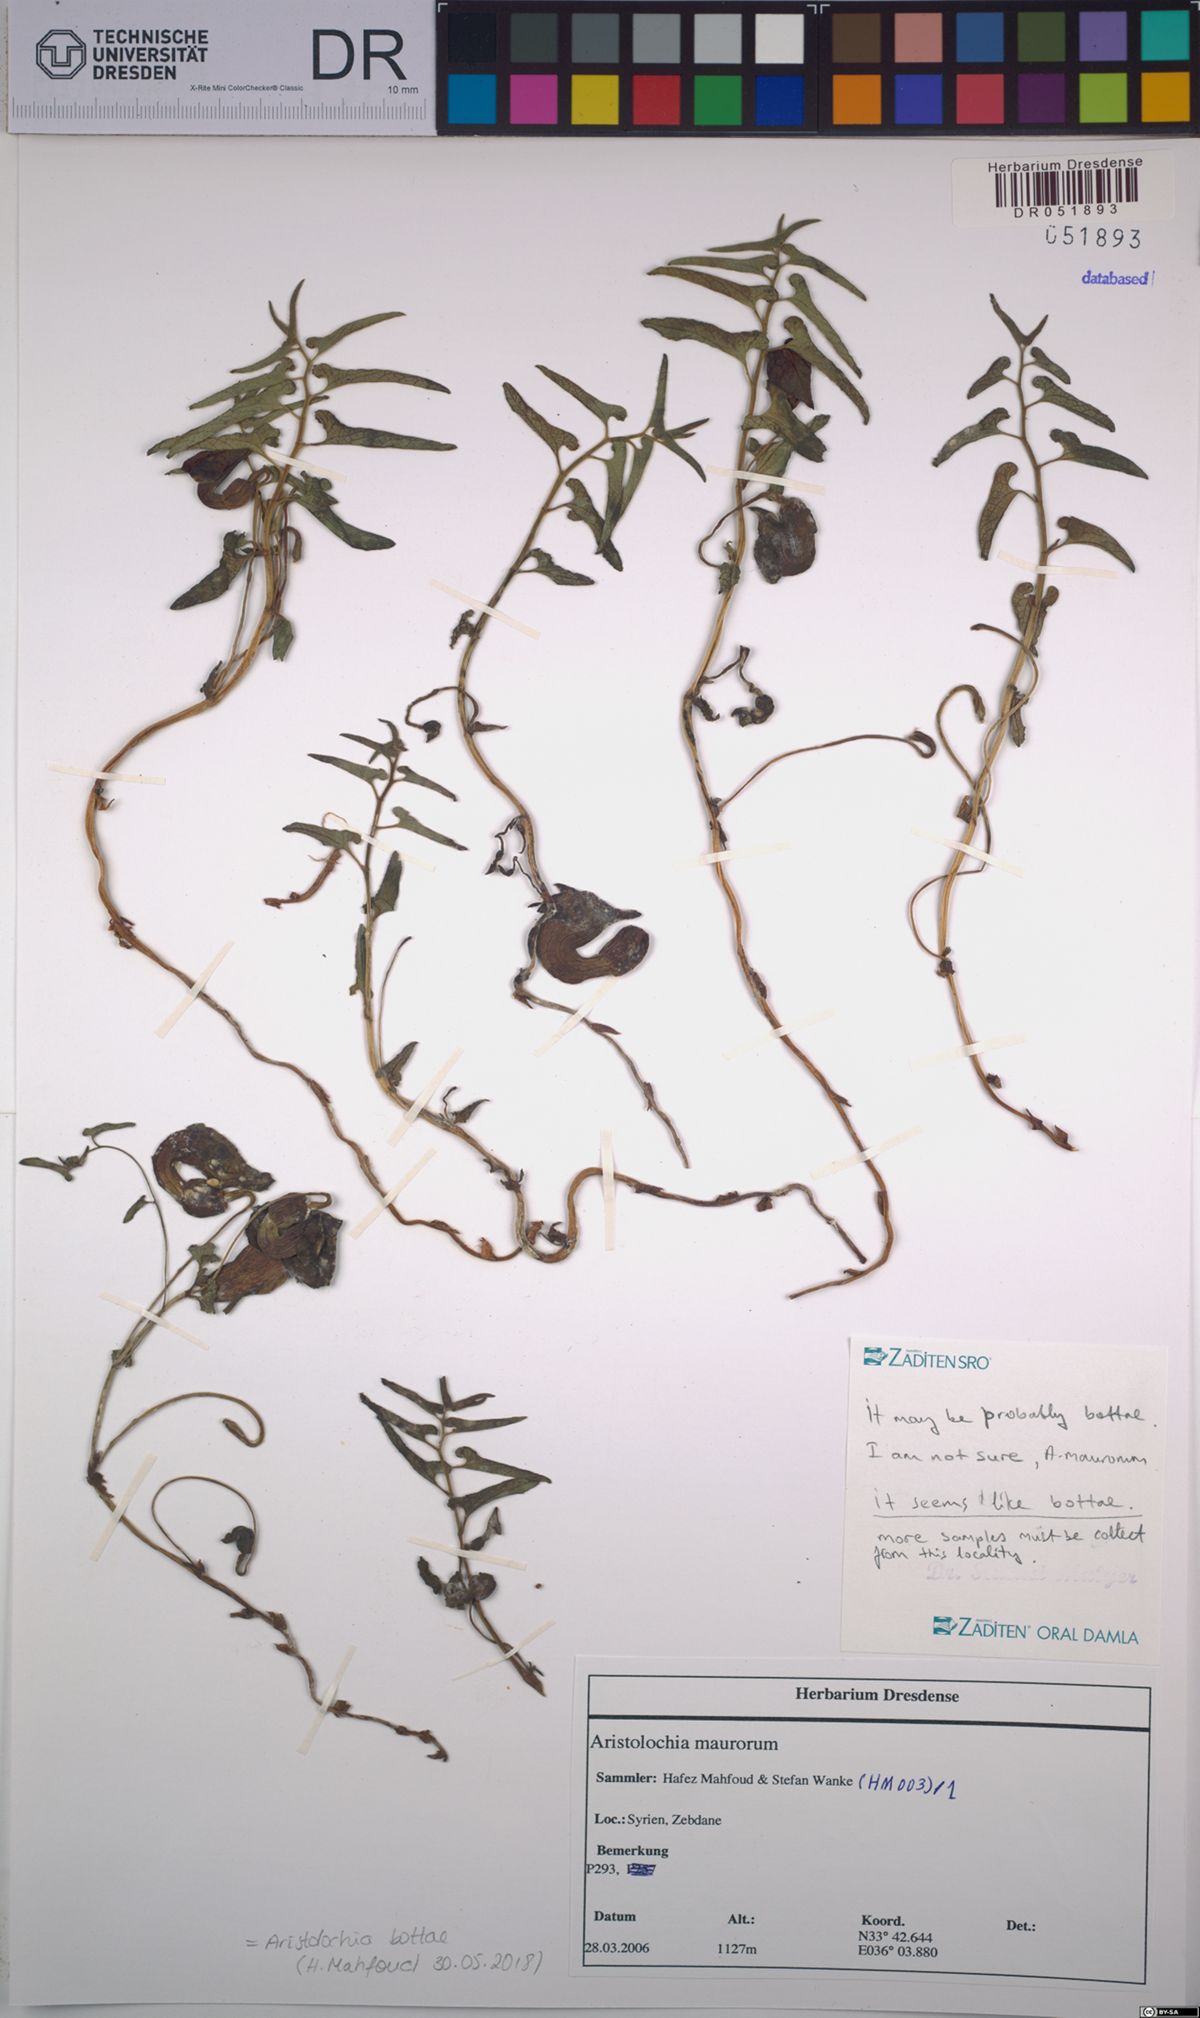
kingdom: Plantae
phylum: Tracheophyta
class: Magnoliopsida
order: Piperales
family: Aristolochiaceae
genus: Aristolochia
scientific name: Aristolochia bottae
